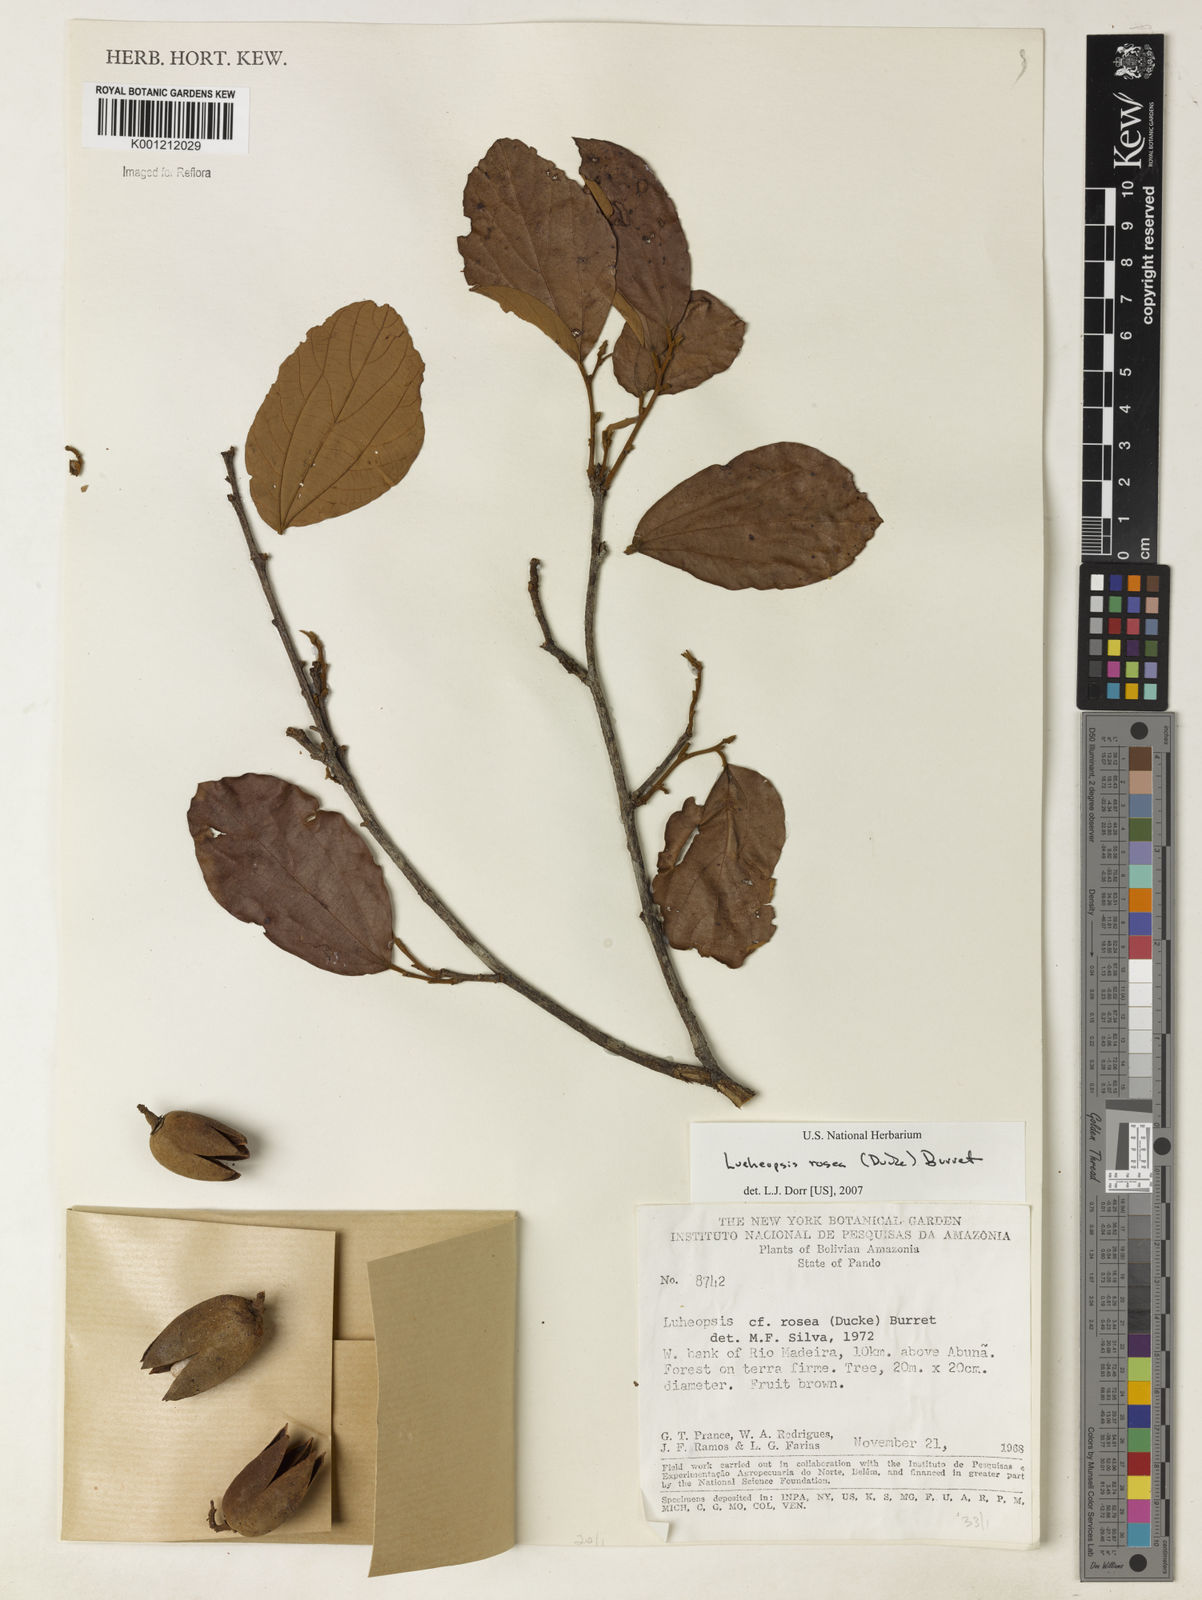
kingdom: Plantae
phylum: Tracheophyta
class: Magnoliopsida
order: Malvales
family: Malvaceae
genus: Lueheopsis
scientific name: Lueheopsis rosea
